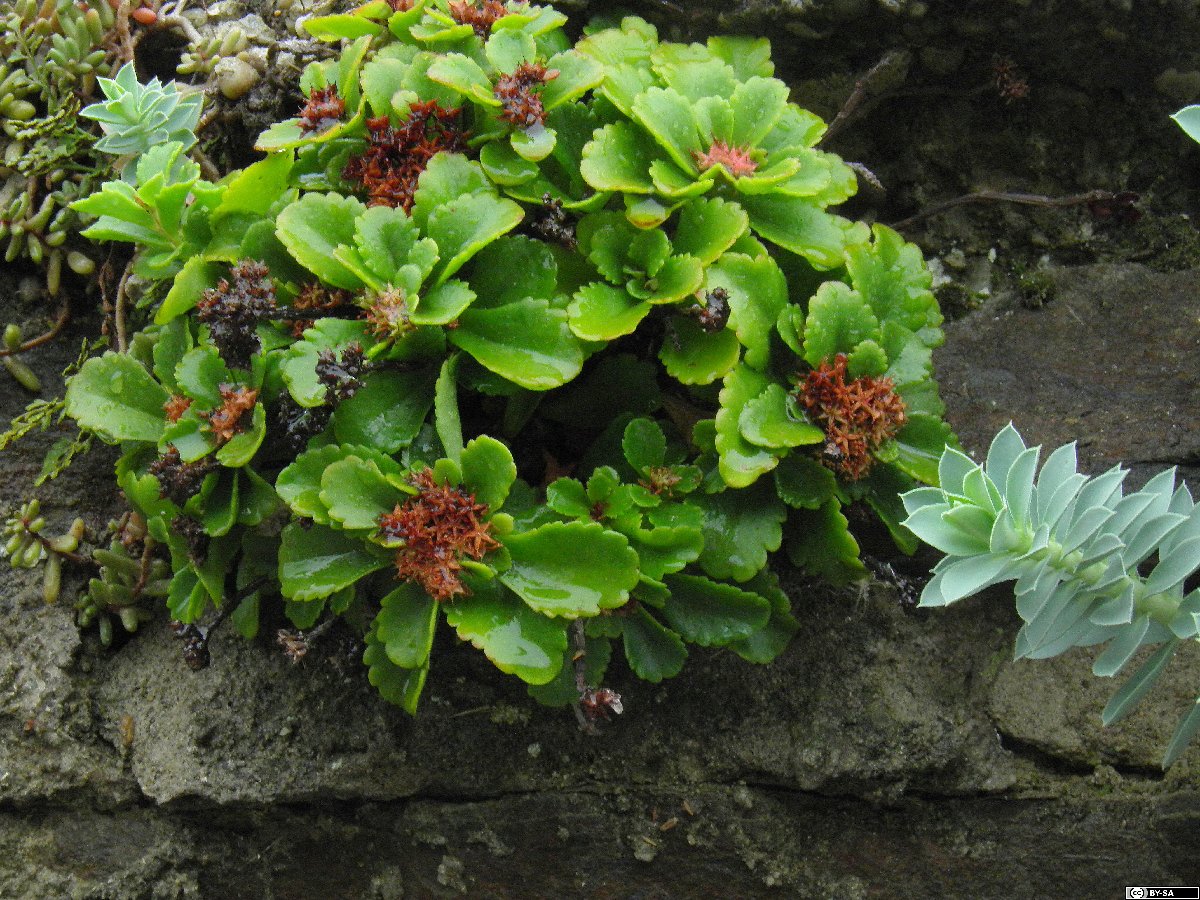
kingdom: Plantae
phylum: Tracheophyta
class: Magnoliopsida
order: Saxifragales
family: Crassulaceae
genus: Phedimus
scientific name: Phedimus ellacombeanus
